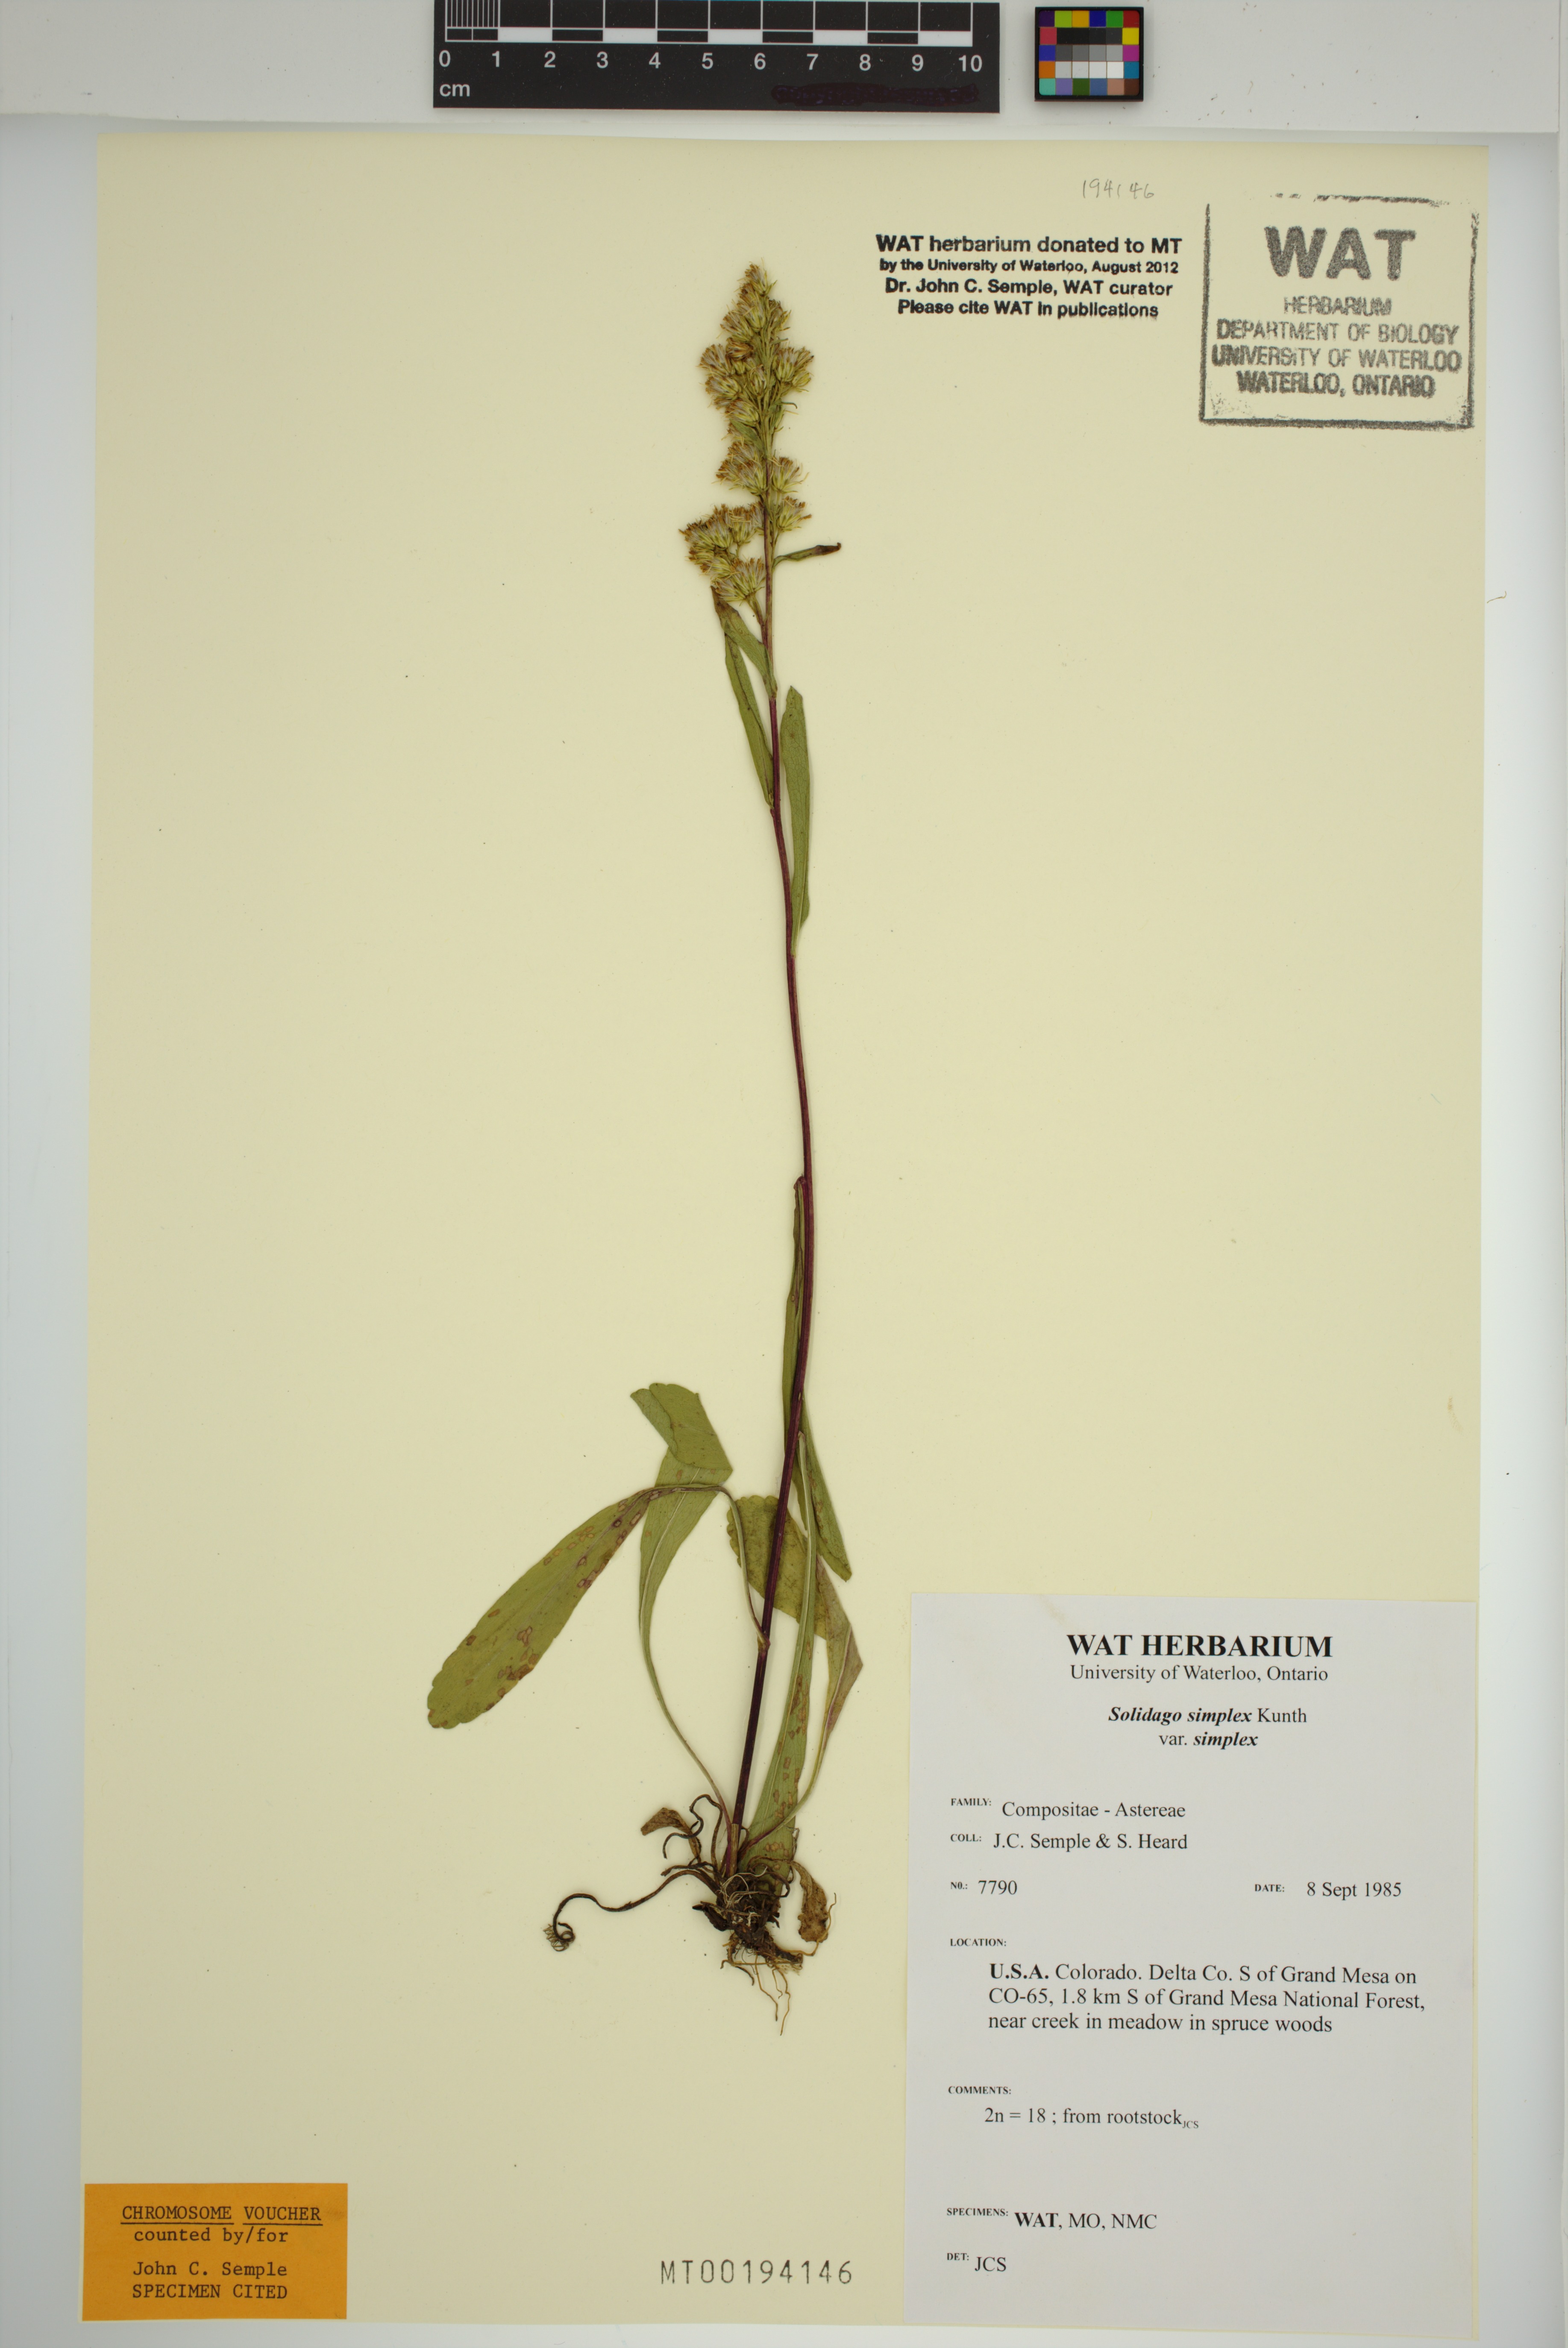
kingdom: Plantae
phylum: Tracheophyta
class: Magnoliopsida
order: Asterales
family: Asteraceae
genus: Solidago
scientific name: Solidago glutinosa
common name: Decumbent goldenrod
